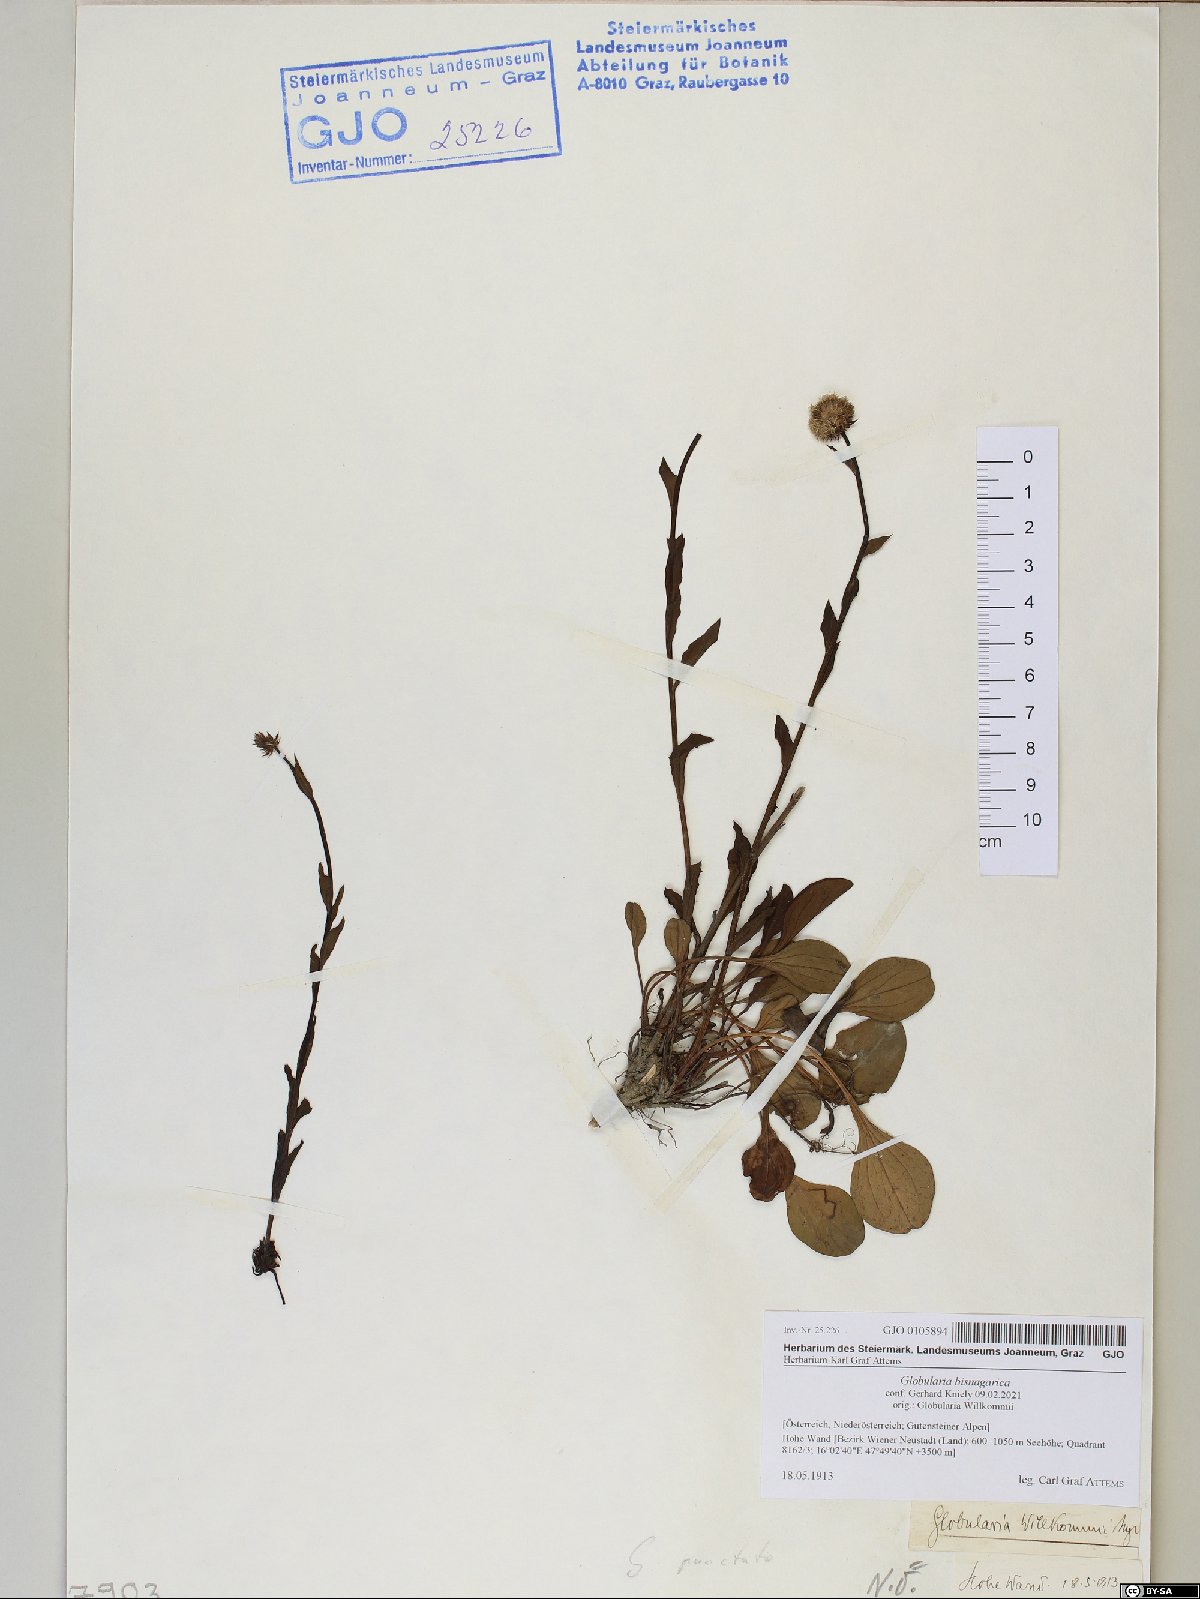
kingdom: Plantae
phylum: Tracheophyta
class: Magnoliopsida
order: Lamiales
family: Plantaginaceae
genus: Globularia
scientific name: Globularia bisnagarica
